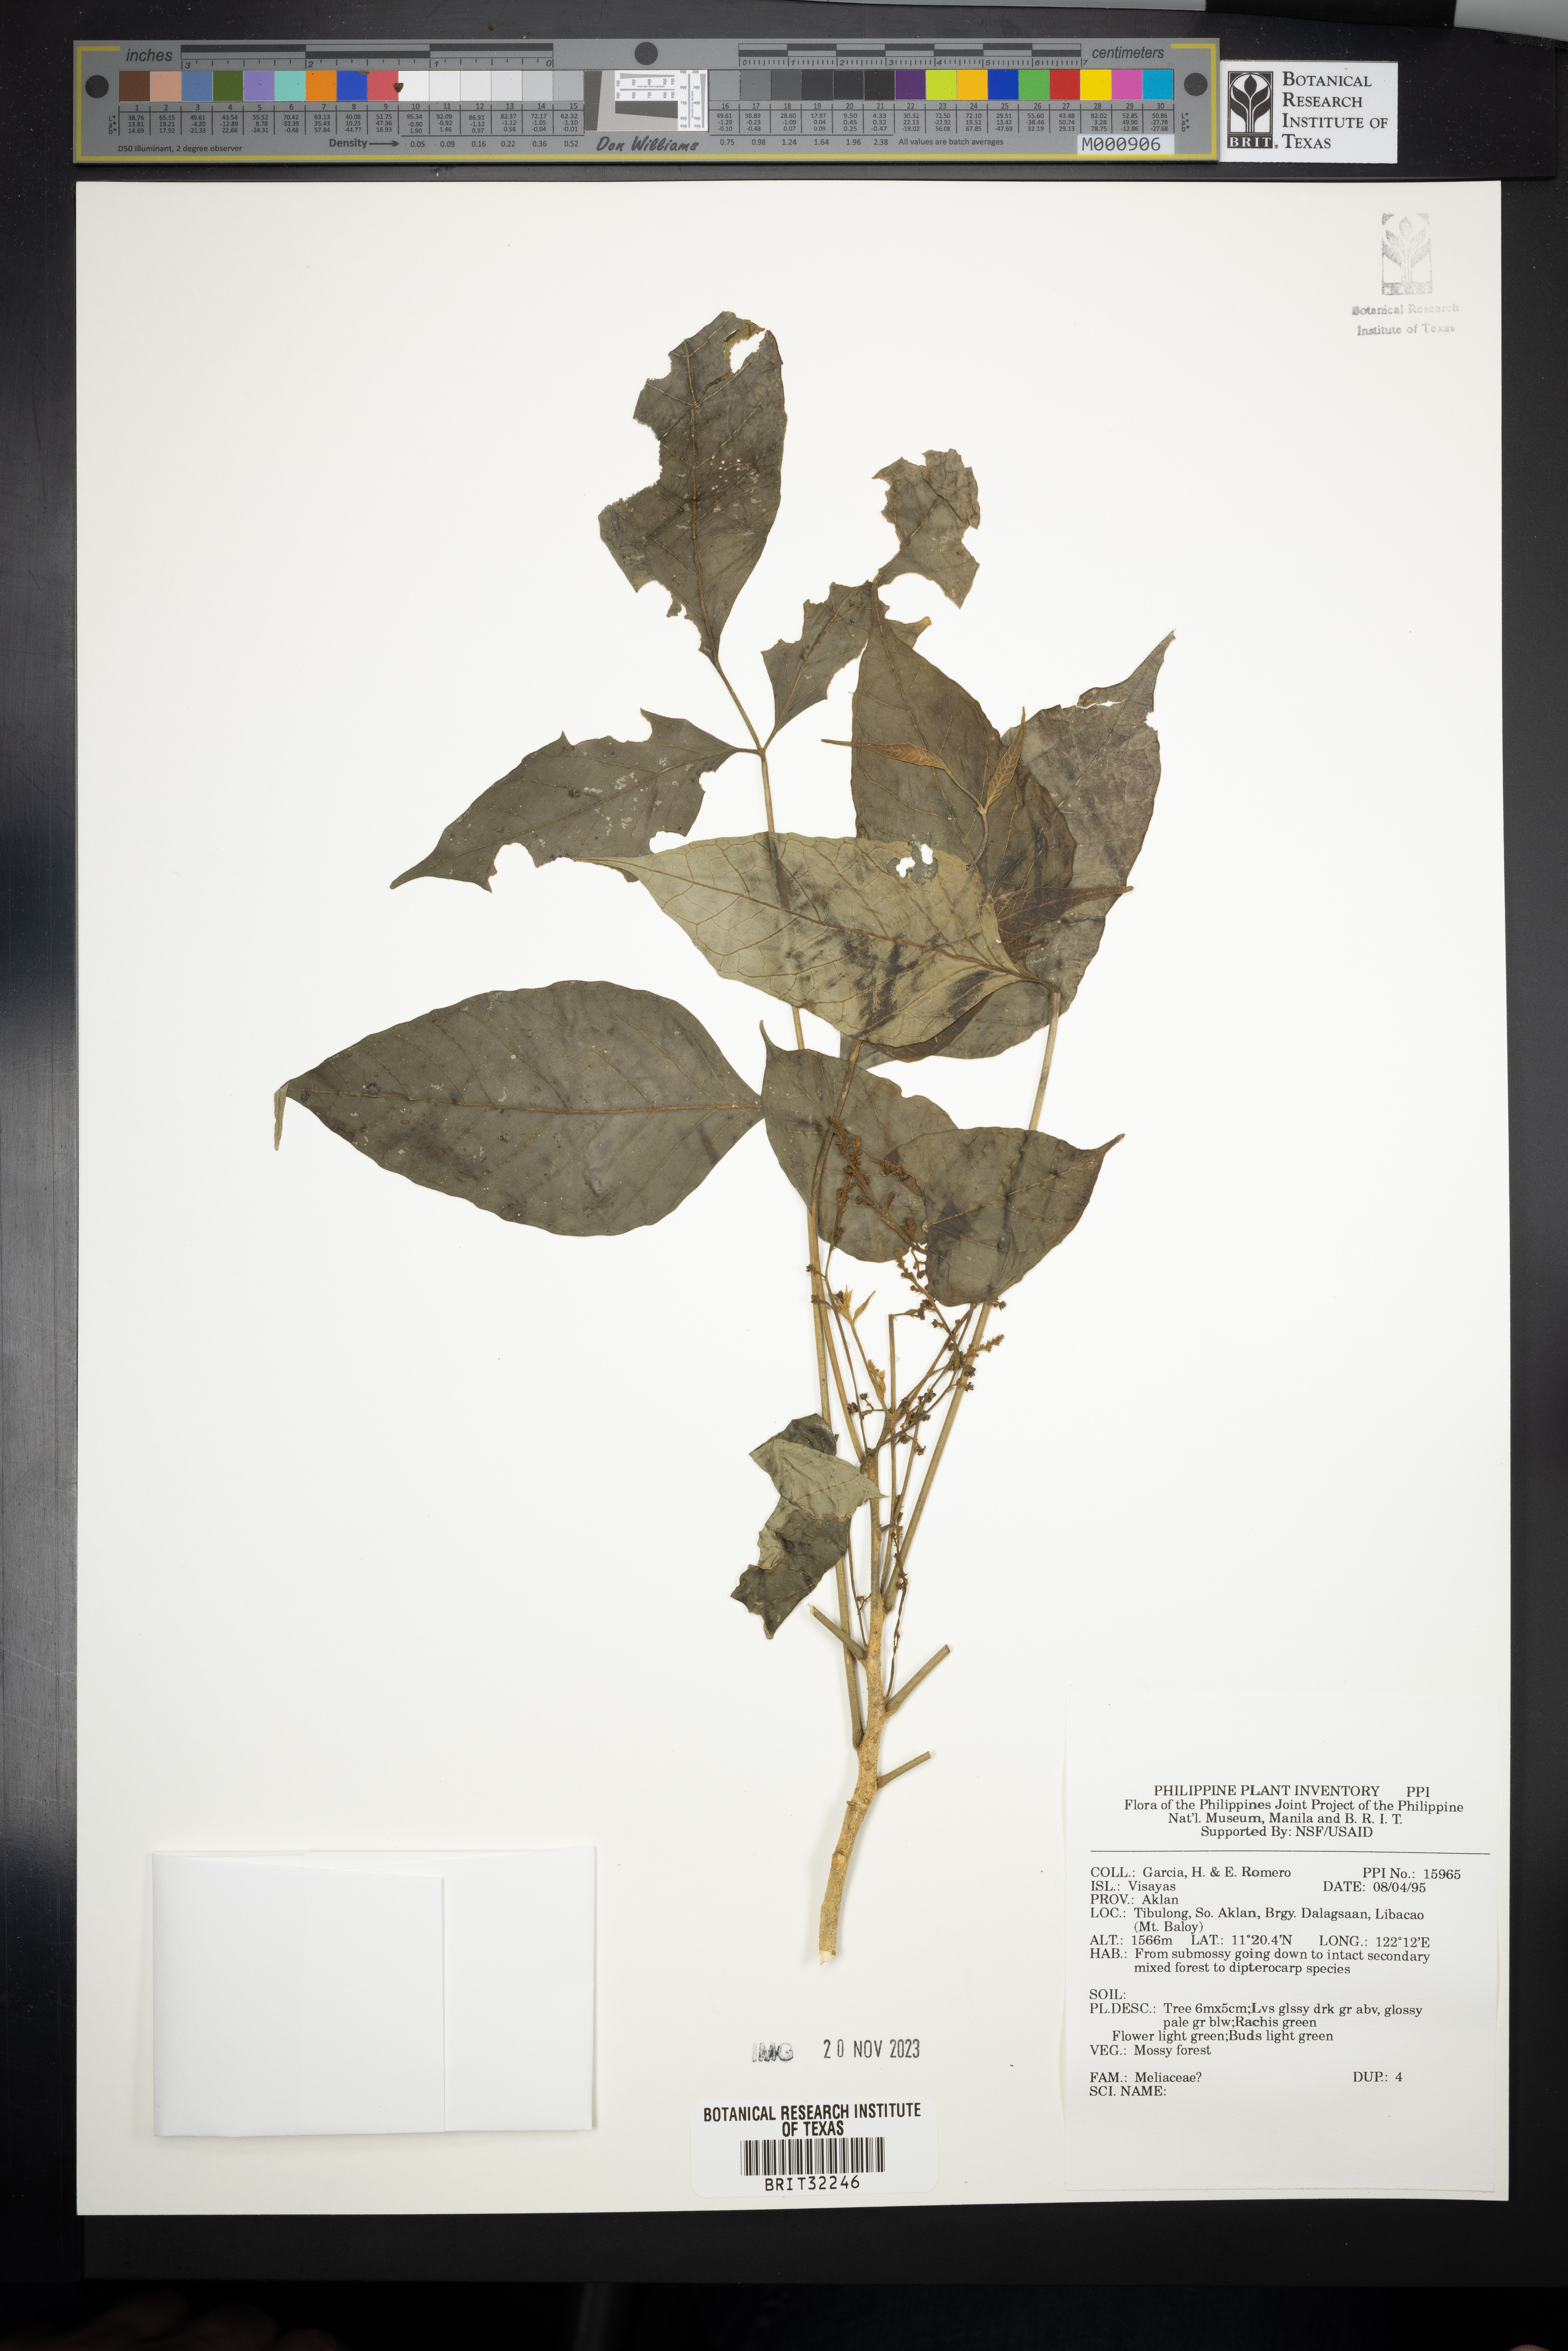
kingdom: Plantae
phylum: Tracheophyta
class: Magnoliopsida
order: Sapindales
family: Meliaceae
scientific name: Meliaceae
